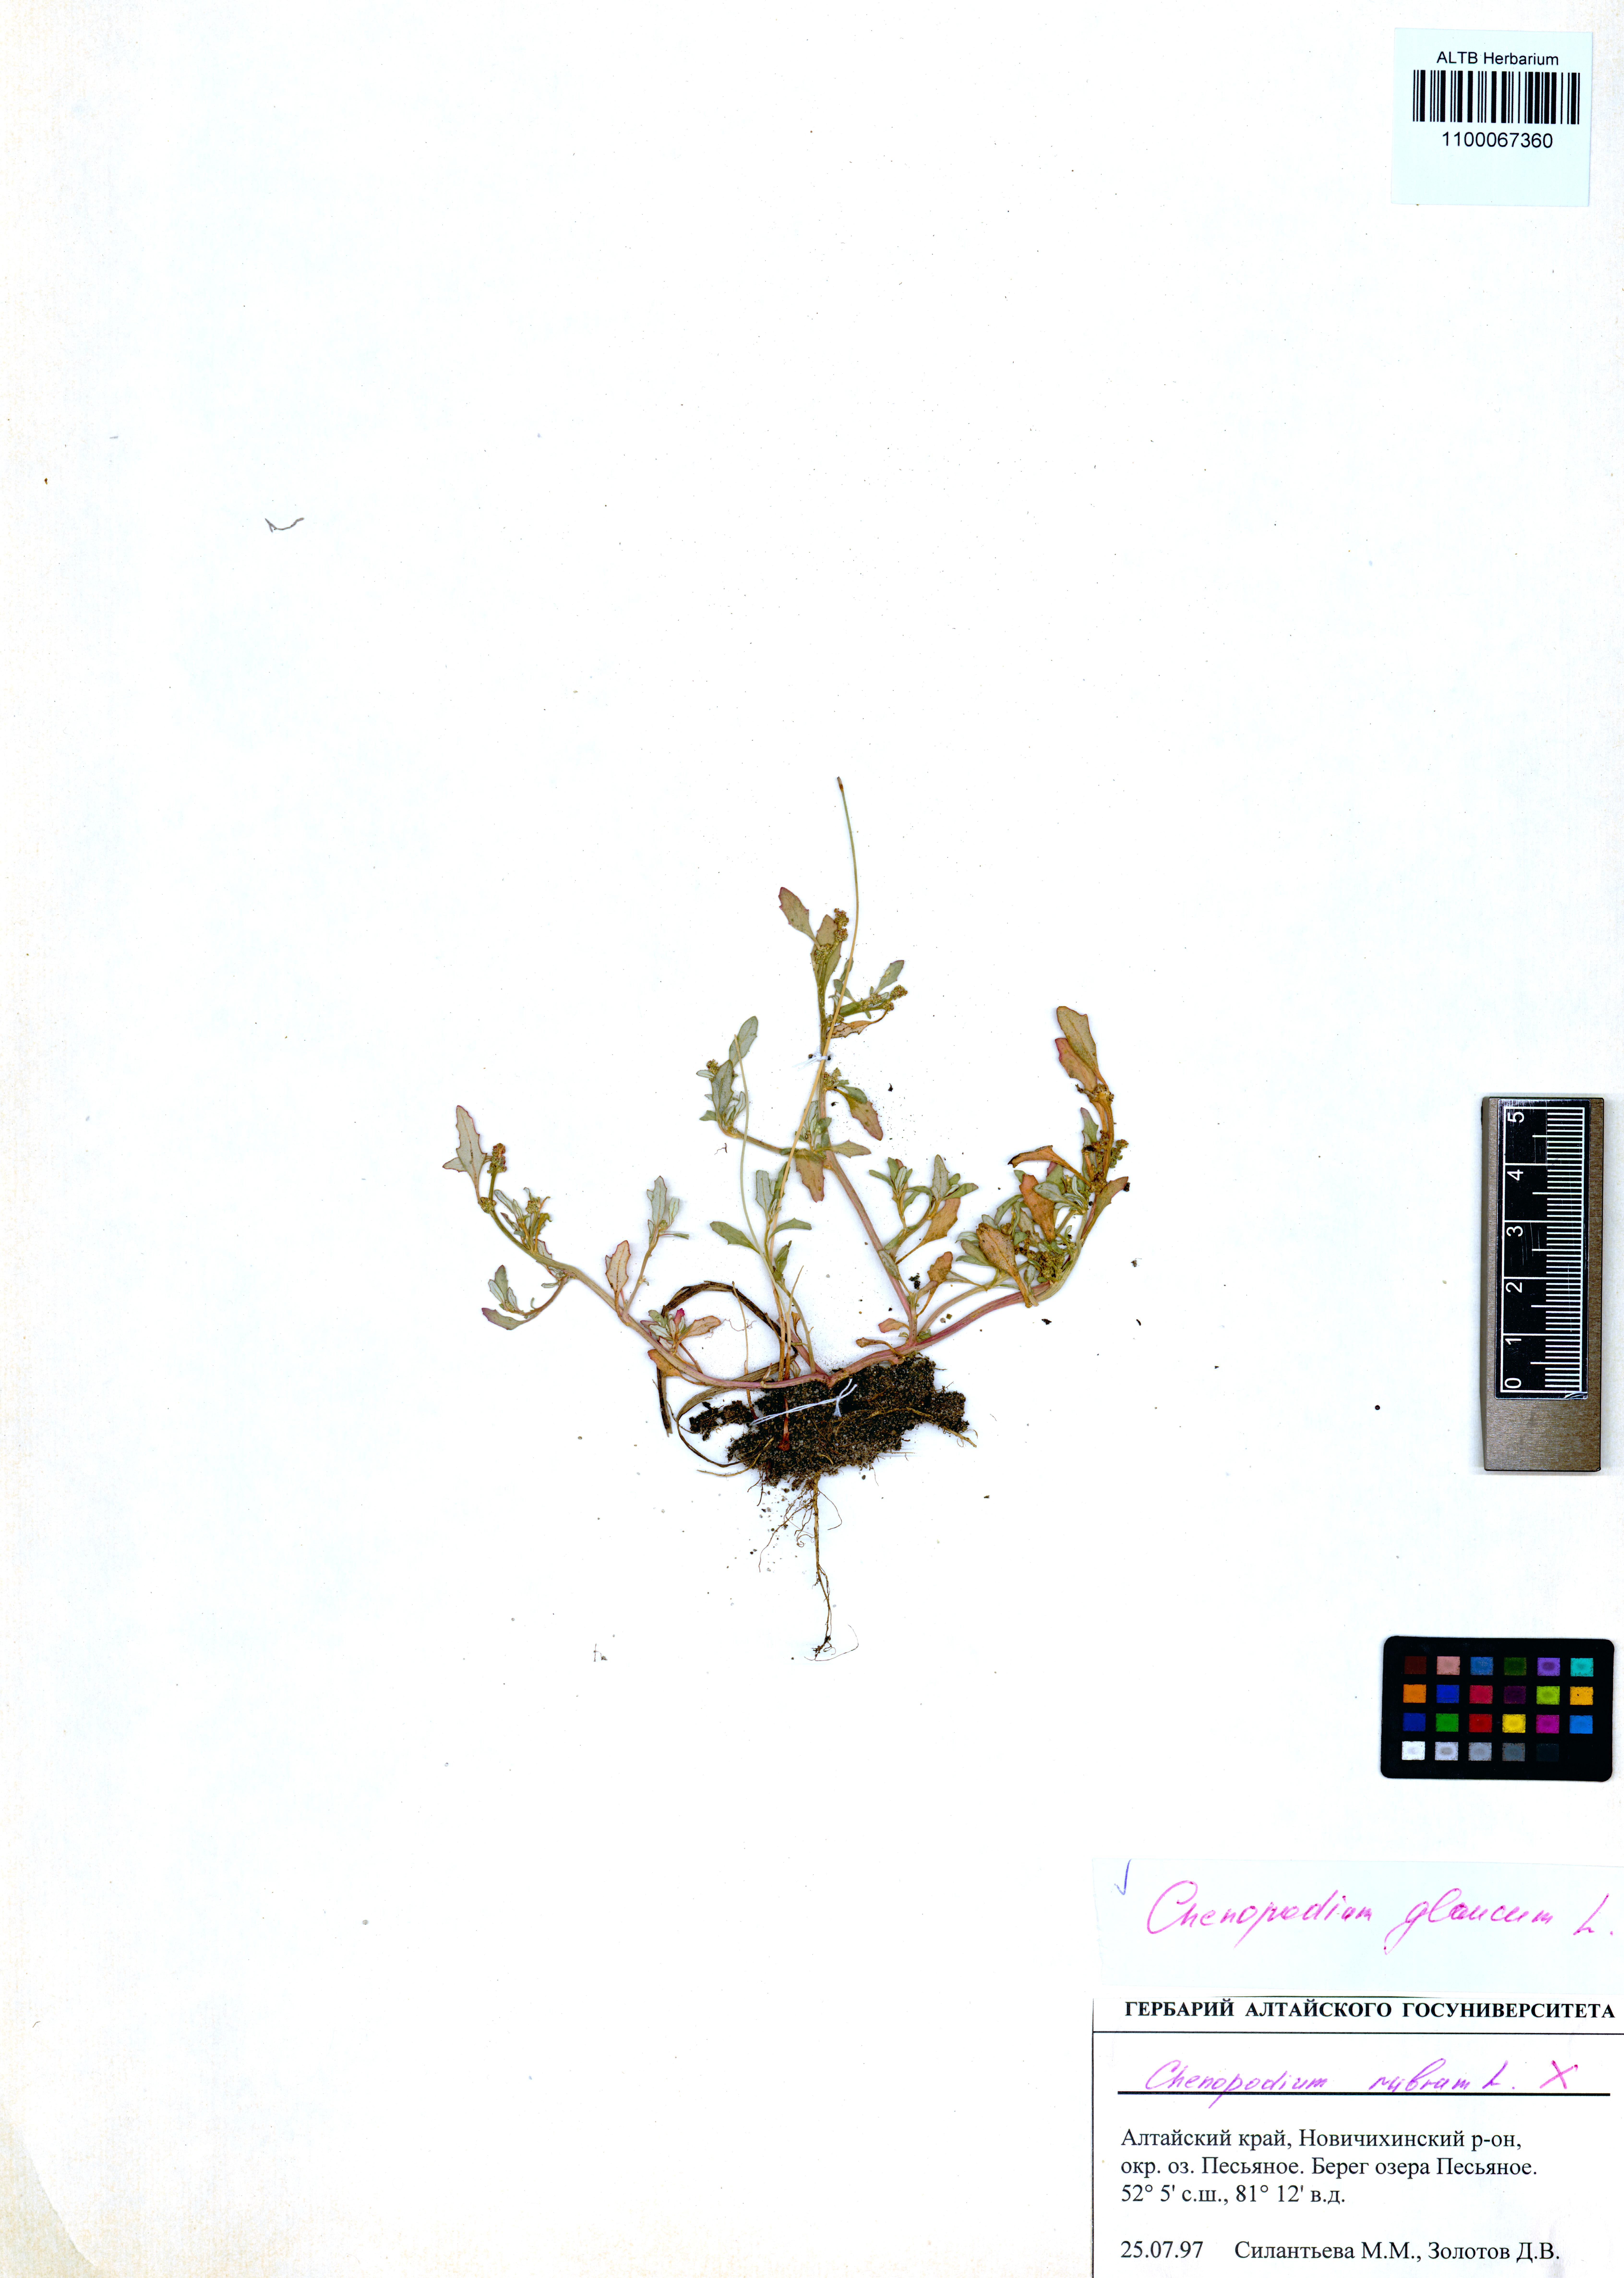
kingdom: Plantae
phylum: Tracheophyta
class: Magnoliopsida
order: Caryophyllales
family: Amaranthaceae
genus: Oxybasis
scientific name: Oxybasis glauca
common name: Glaucous goosefoot
